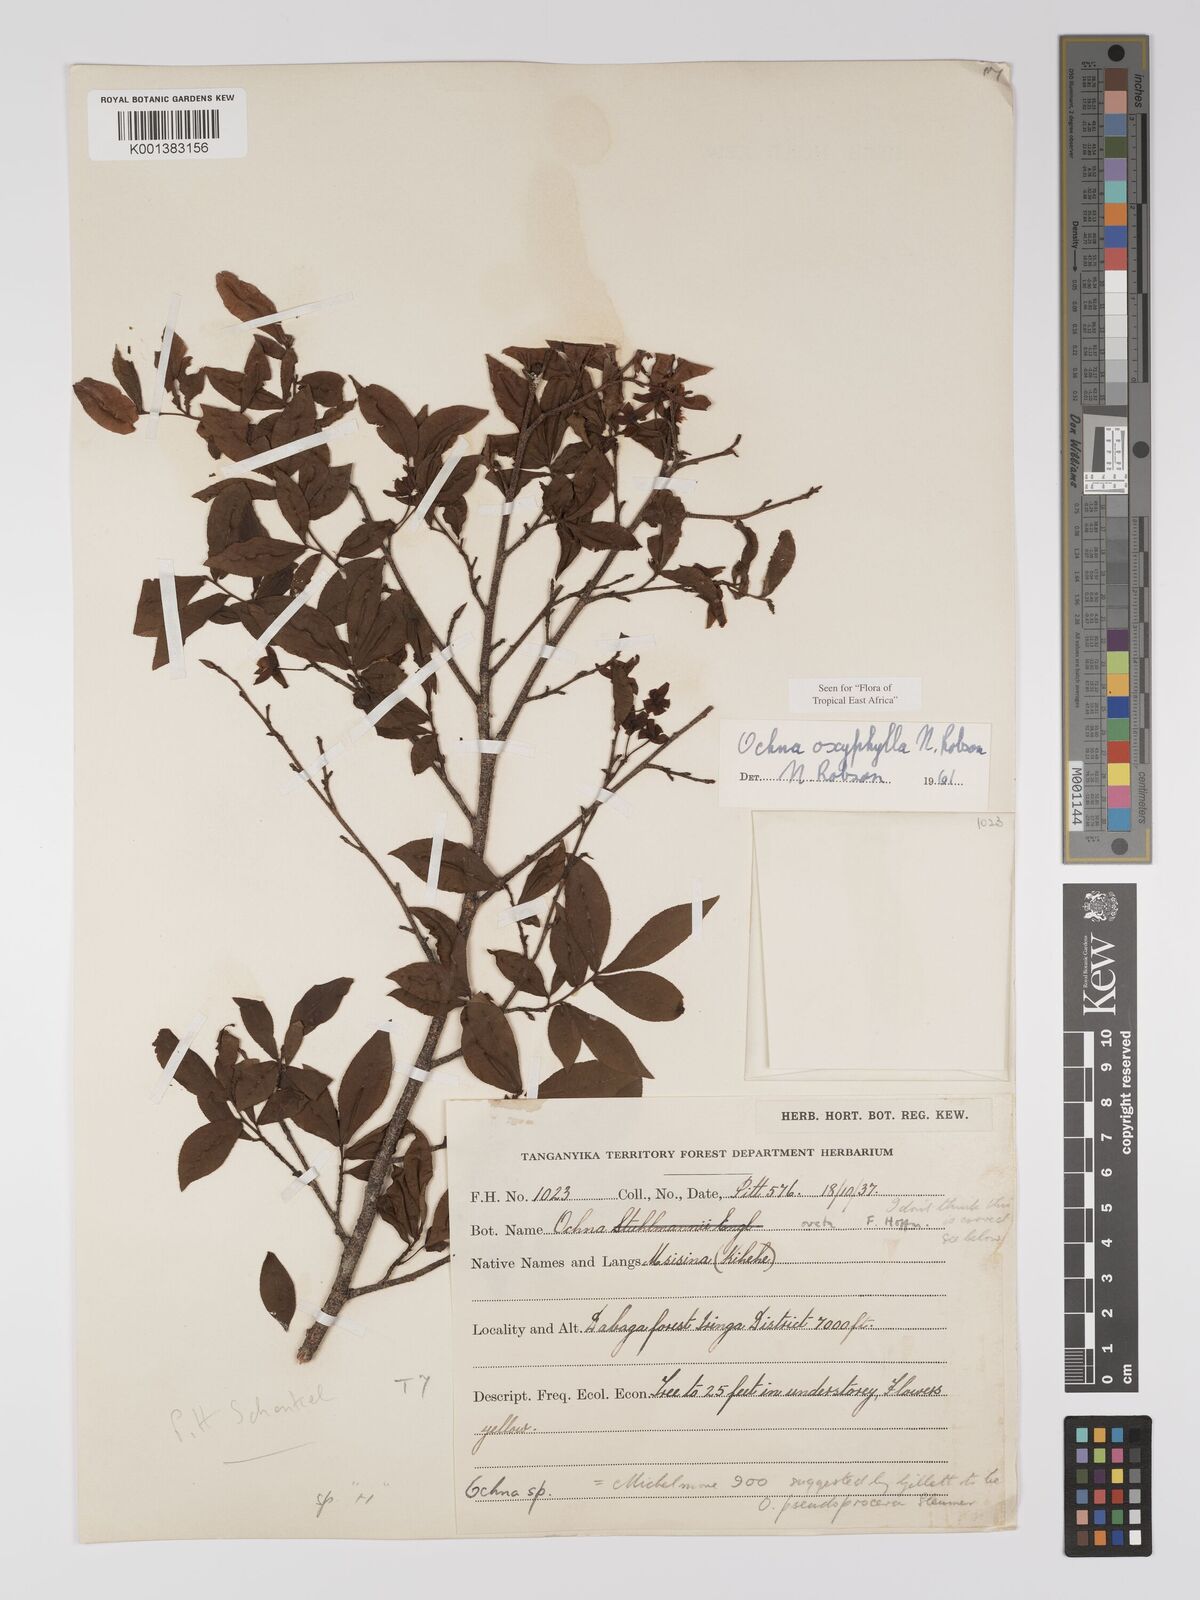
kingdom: Plantae
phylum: Tracheophyta
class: Magnoliopsida
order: Malpighiales
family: Ochnaceae
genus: Ochna
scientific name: Ochna oxyphylla
